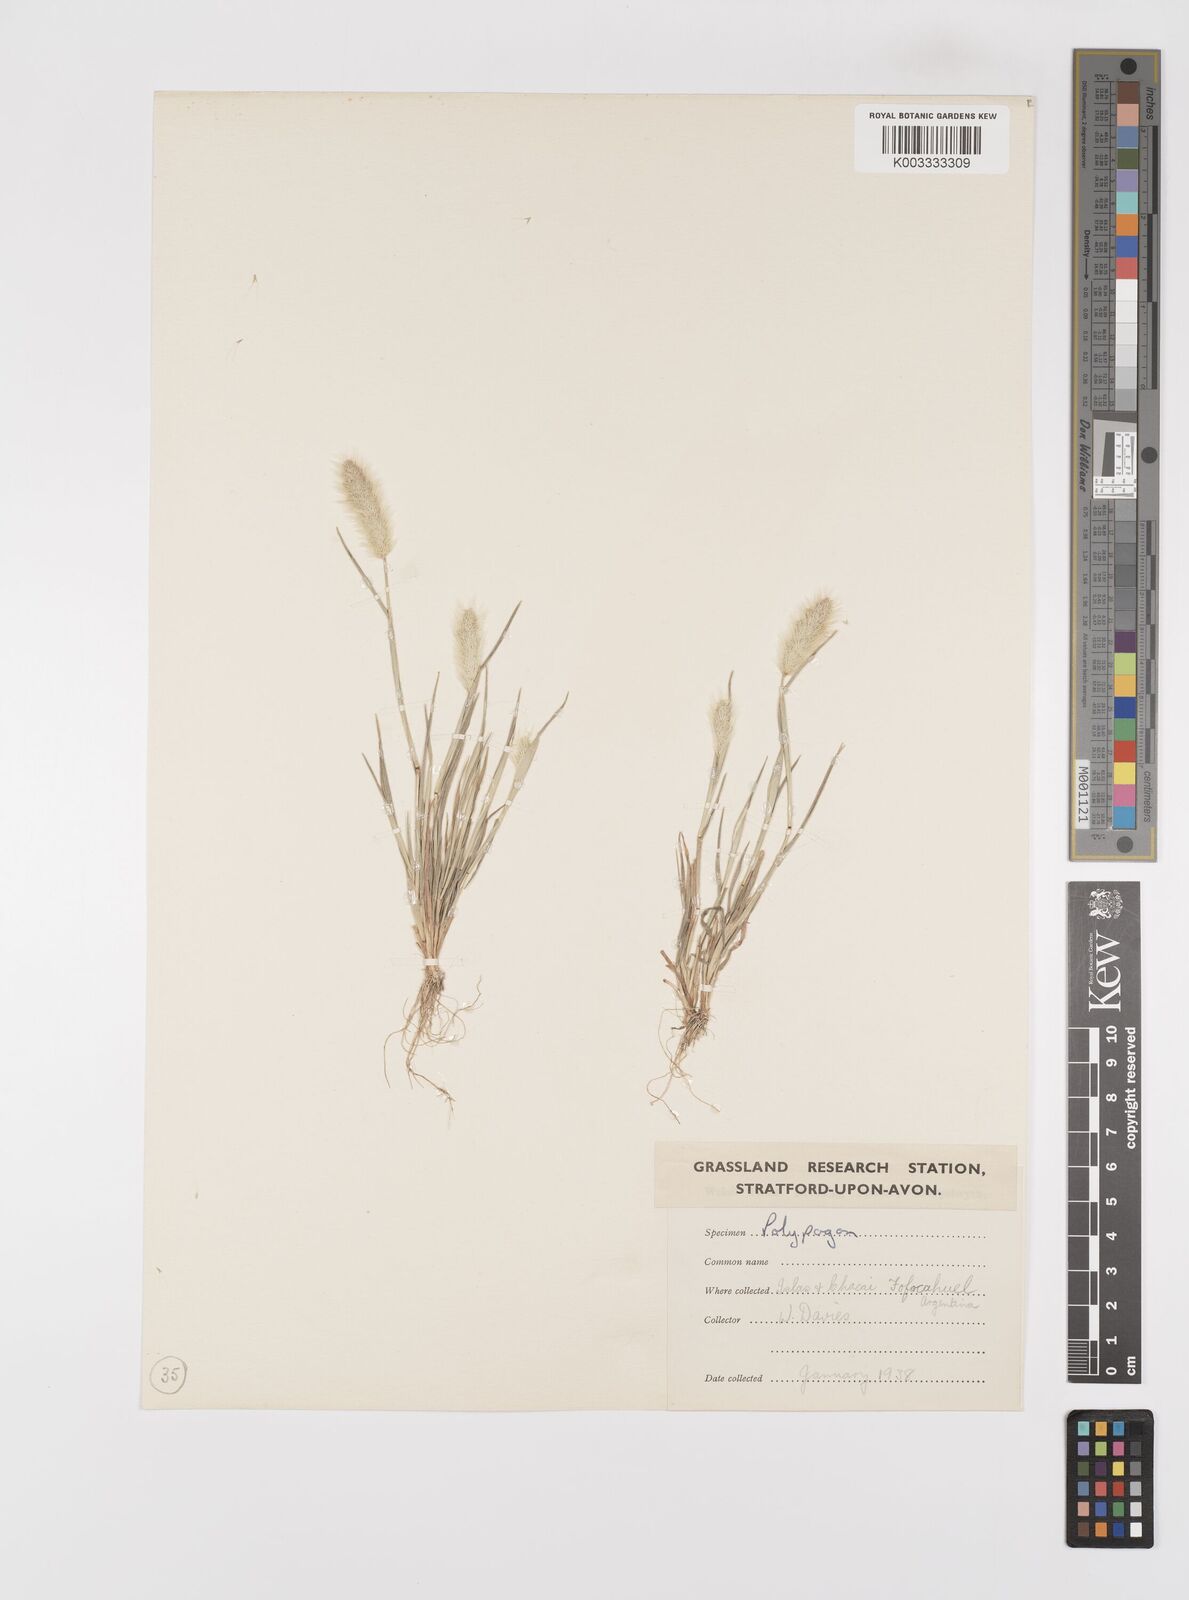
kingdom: Plantae
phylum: Tracheophyta
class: Liliopsida
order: Poales
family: Poaceae
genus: Polypogon
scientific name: Polypogon monspeliensis
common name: Annual rabbitsfoot grass
